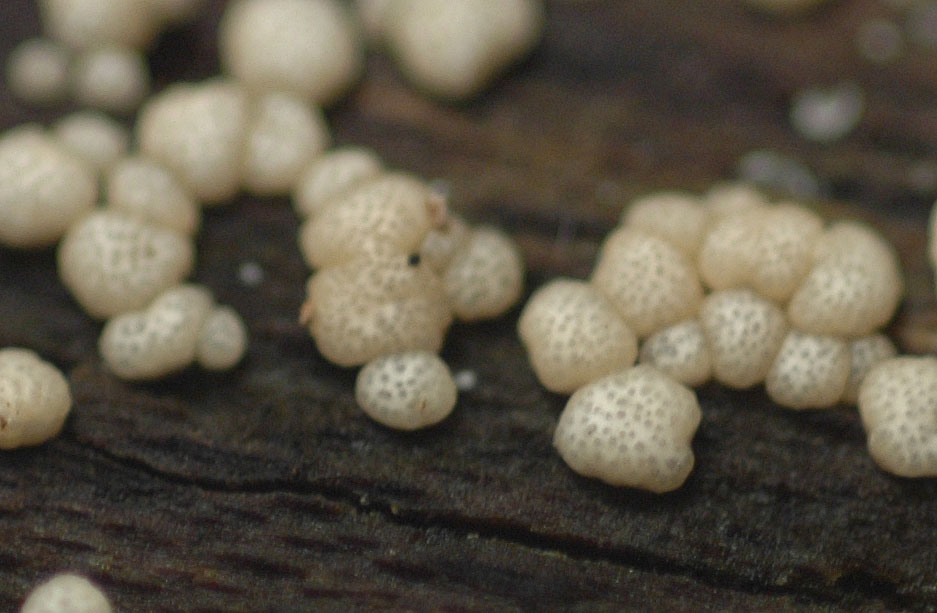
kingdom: Fungi
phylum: Ascomycota
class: Sordariomycetes
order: Hypocreales
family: Hypocreaceae
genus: Trichoderma
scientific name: Trichoderma strictipile
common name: grønprikket kødkerne
